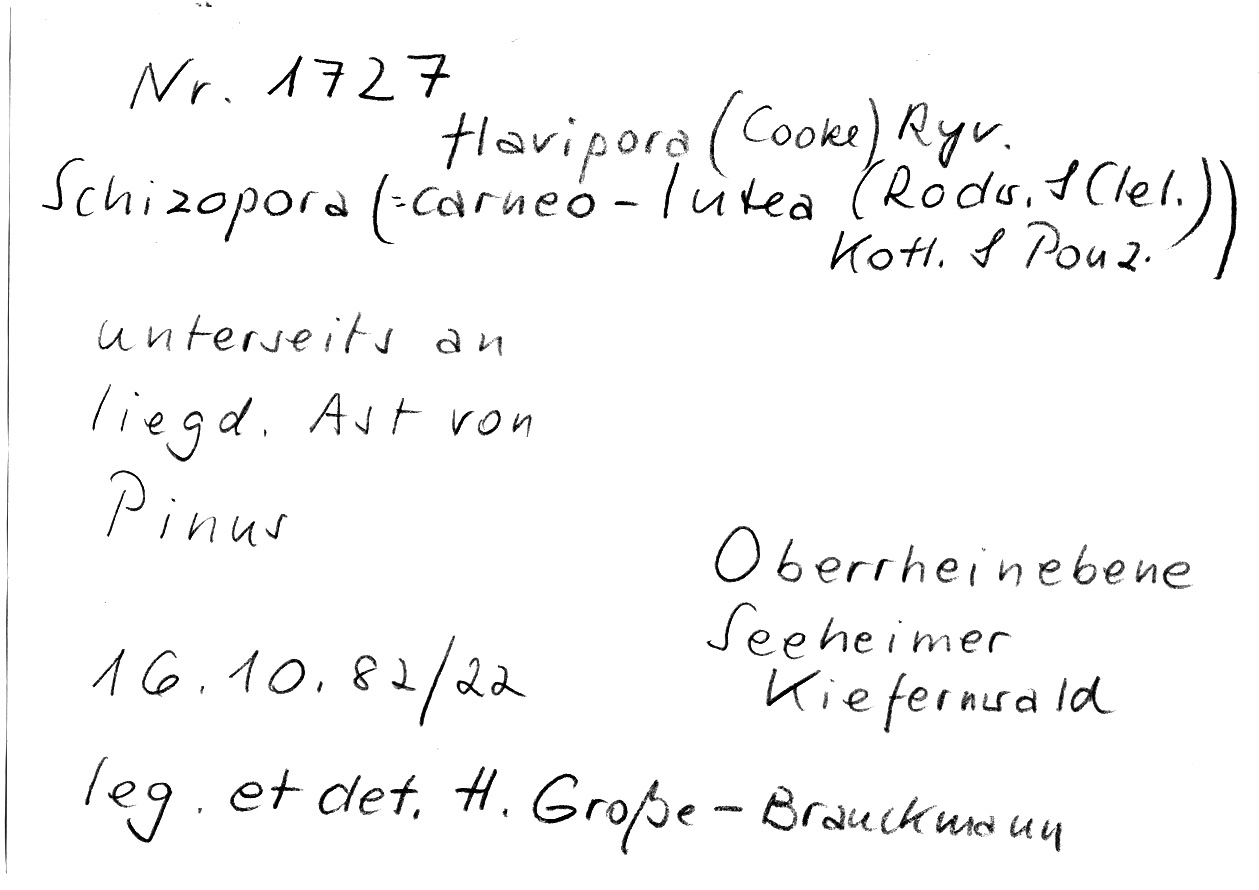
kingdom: Plantae
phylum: Tracheophyta
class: Pinopsida
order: Pinales
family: Pinaceae
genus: Pinus
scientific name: Pinus
